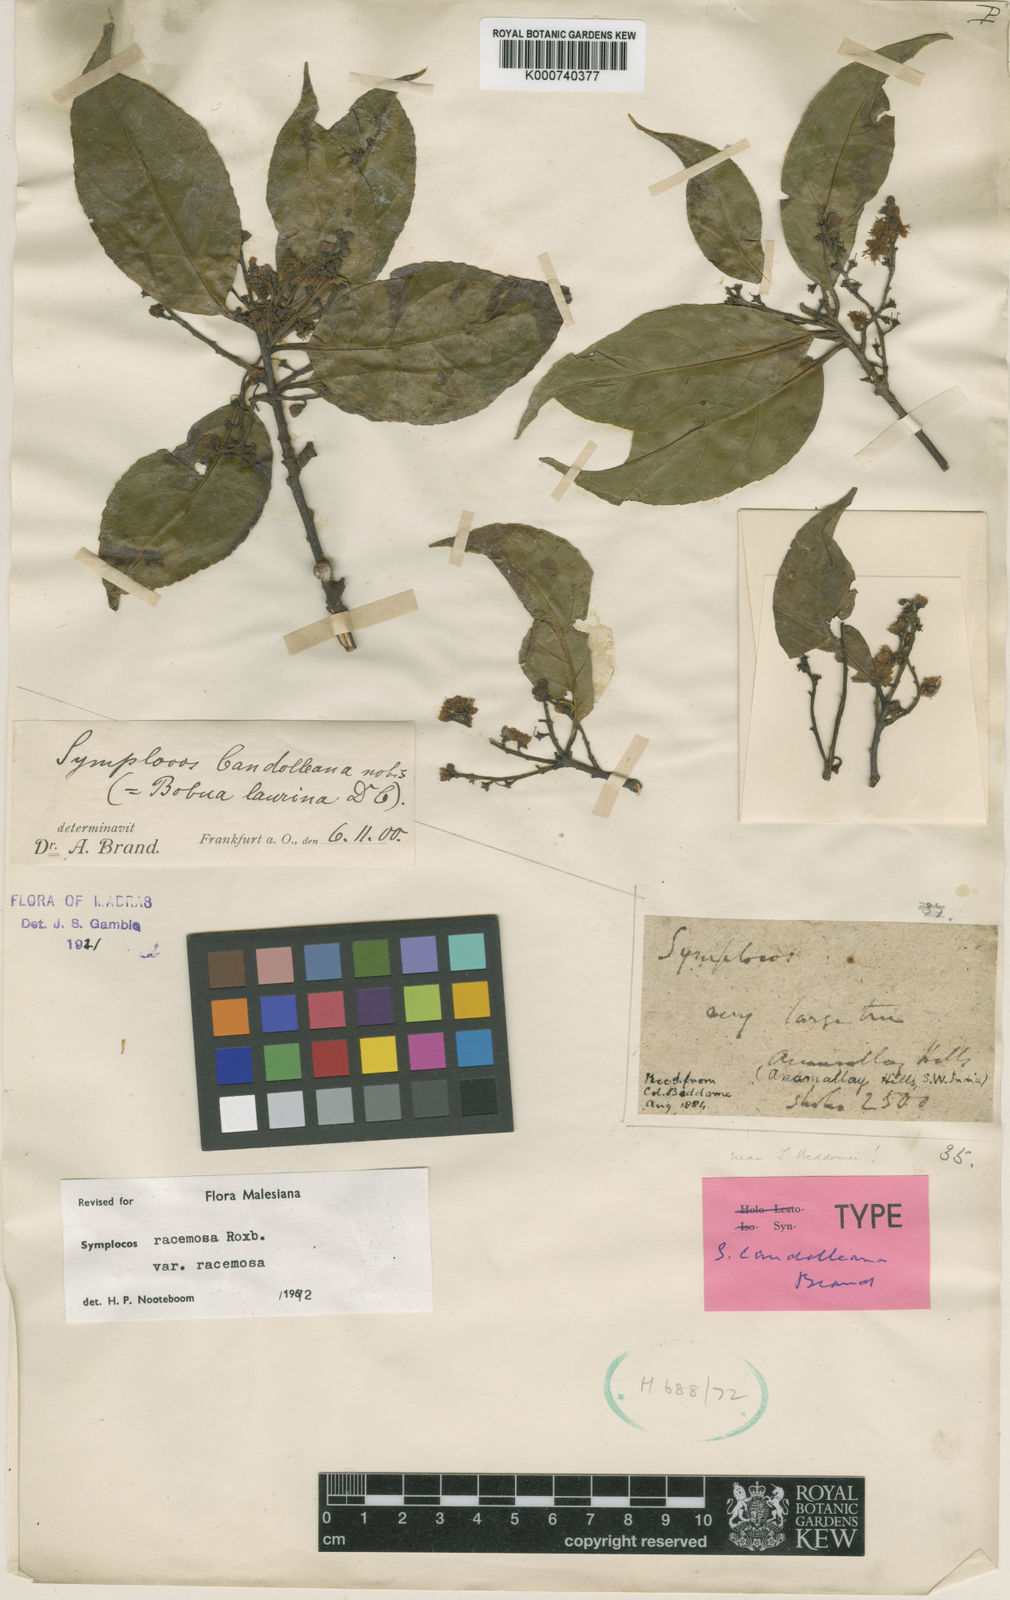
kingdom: Plantae
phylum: Tracheophyta
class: Magnoliopsida
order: Ericales
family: Symplocaceae
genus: Symplocos
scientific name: Symplocos racemosa
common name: Lodhtree
